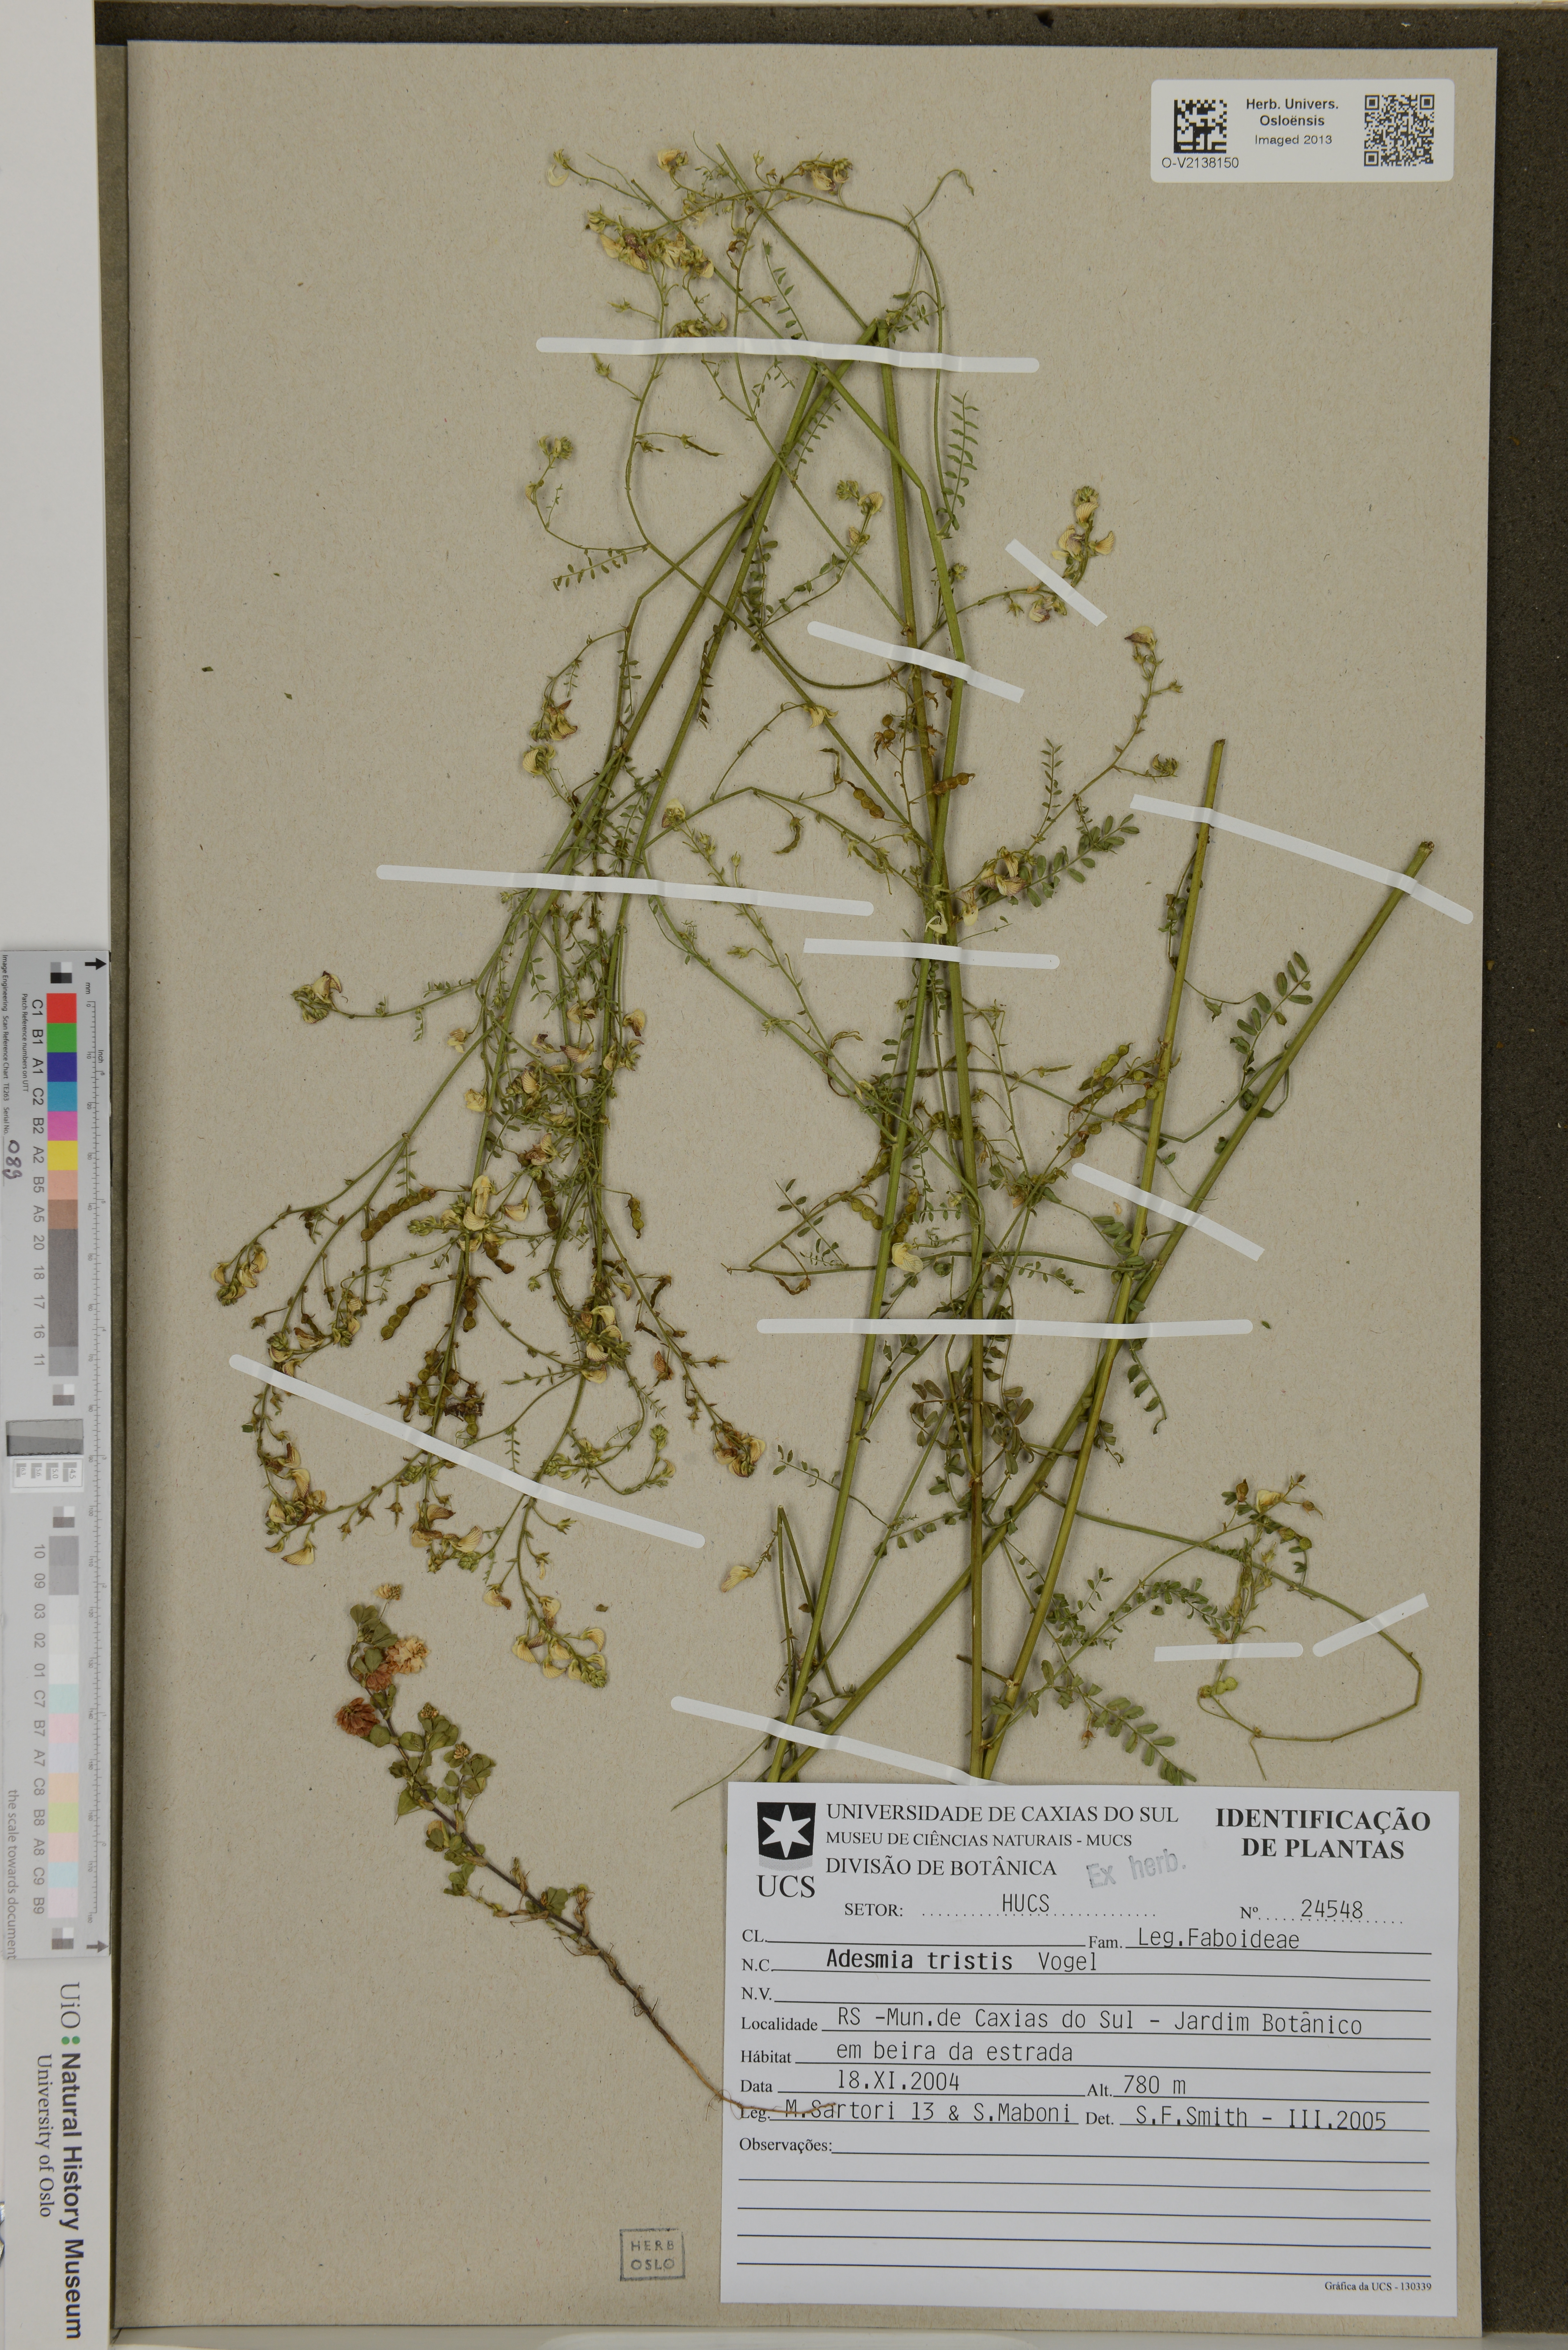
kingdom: Plantae
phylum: Tracheophyta
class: Magnoliopsida
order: Fabales
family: Fabaceae
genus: Adesmia
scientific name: Adesmia tristis
